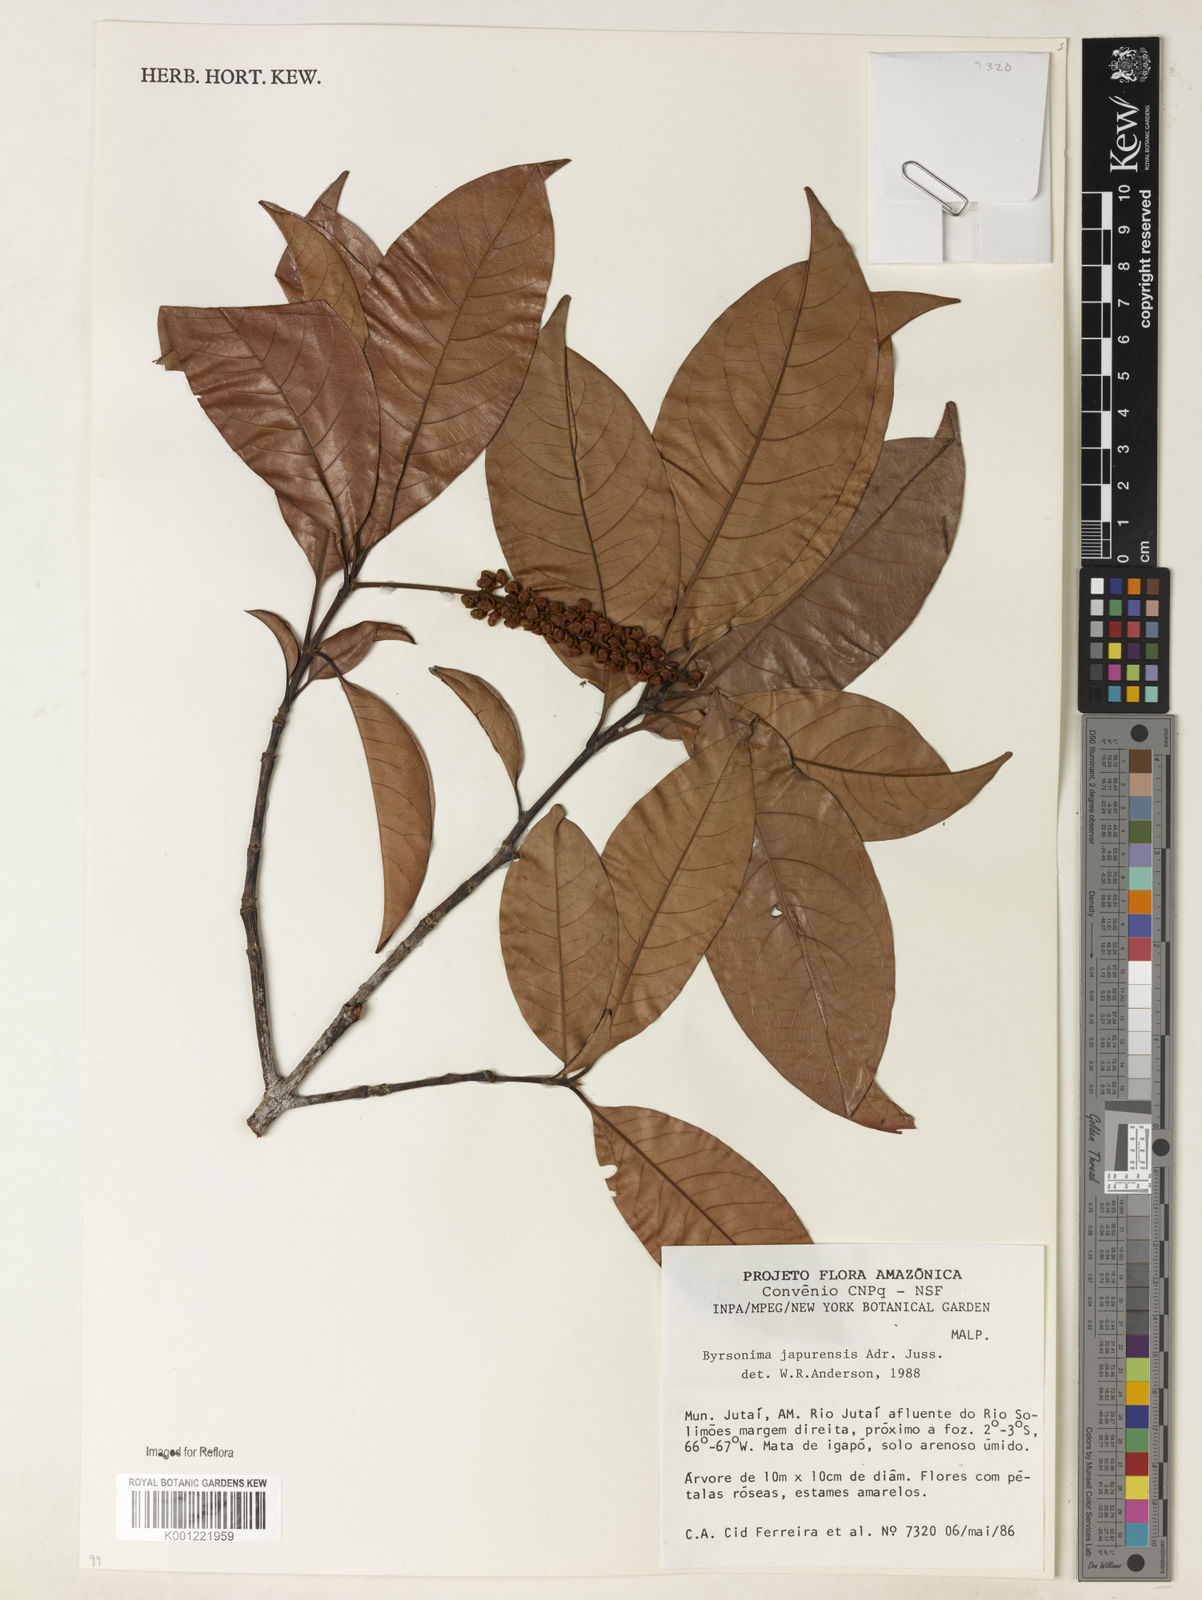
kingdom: Plantae
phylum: Tracheophyta
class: Magnoliopsida
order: Malpighiales
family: Malpighiaceae
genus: Byrsonima
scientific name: Byrsonima japurensis
